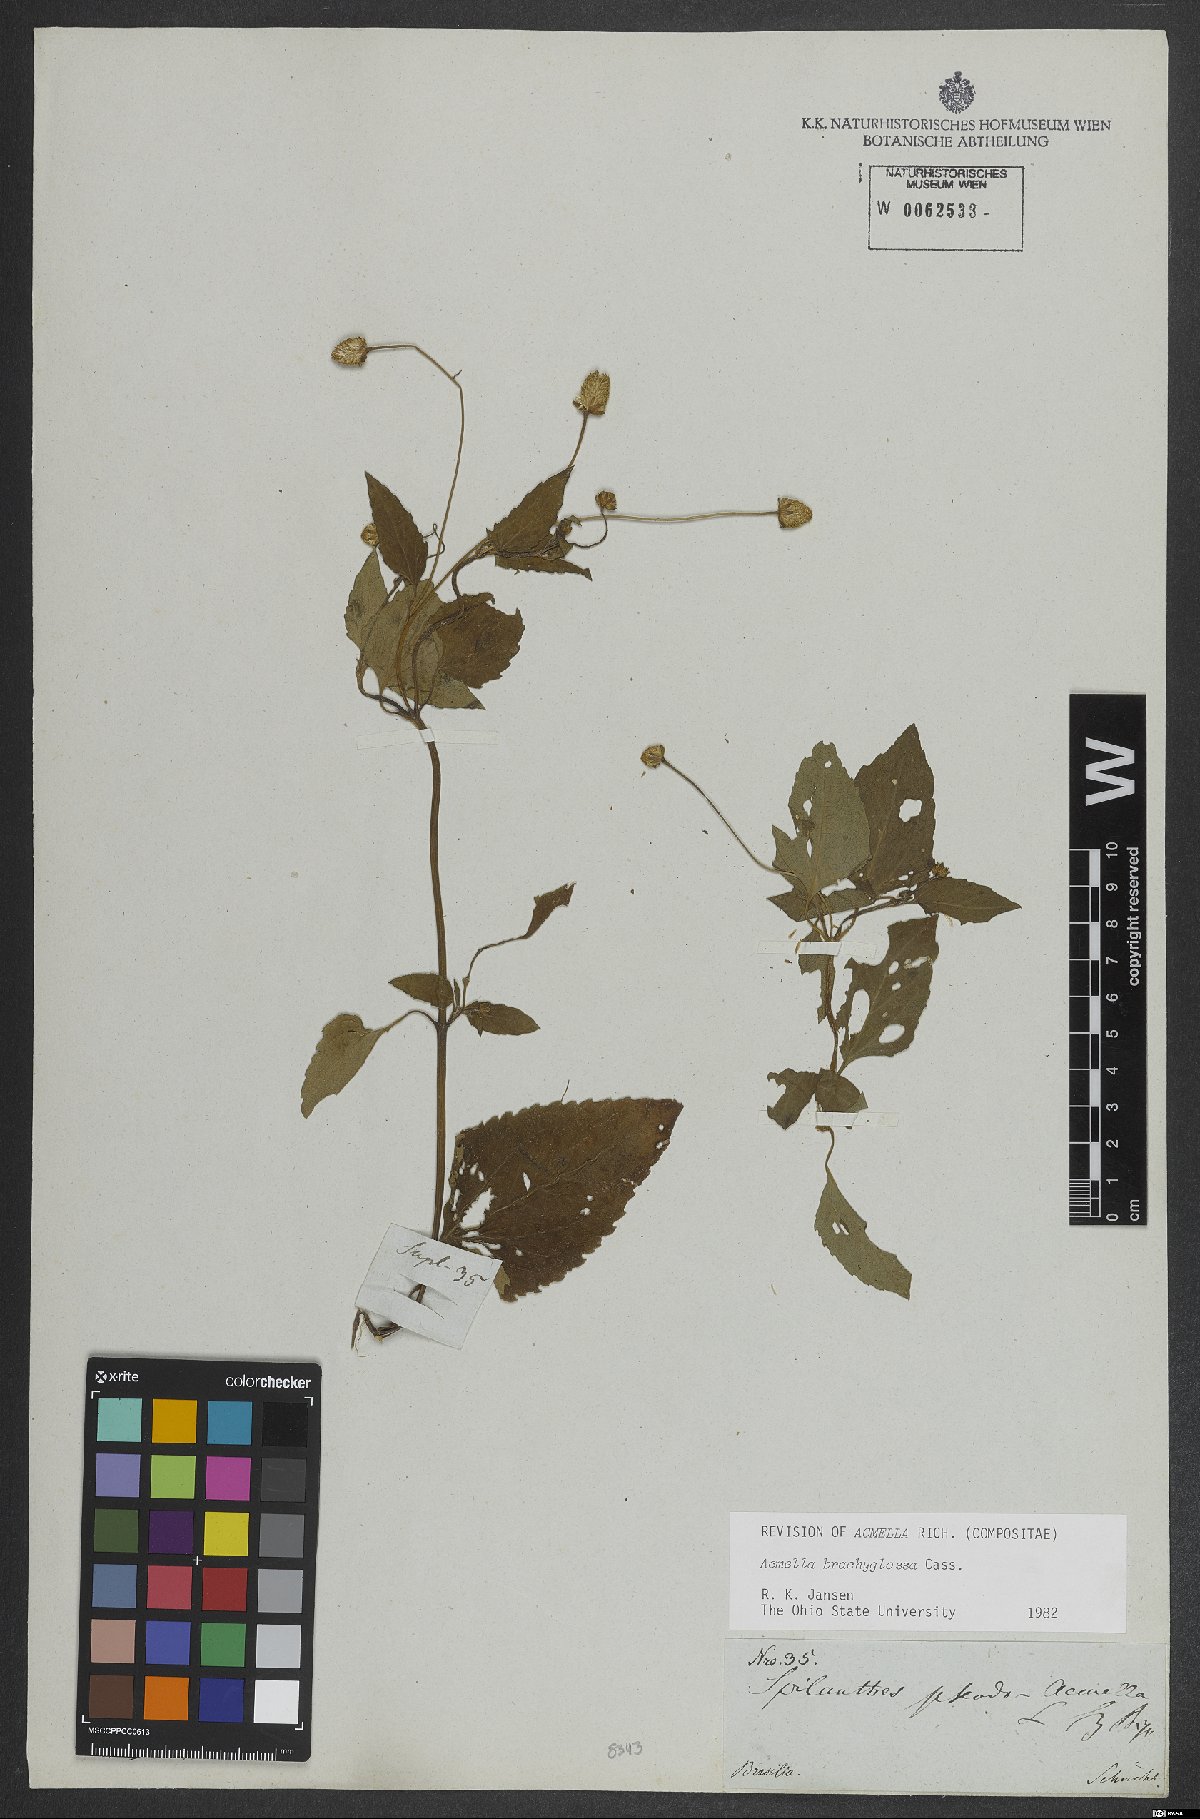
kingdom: Plantae
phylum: Tracheophyta
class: Magnoliopsida
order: Asterales
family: Asteraceae
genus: Acmella
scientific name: Acmella brachyglossa
